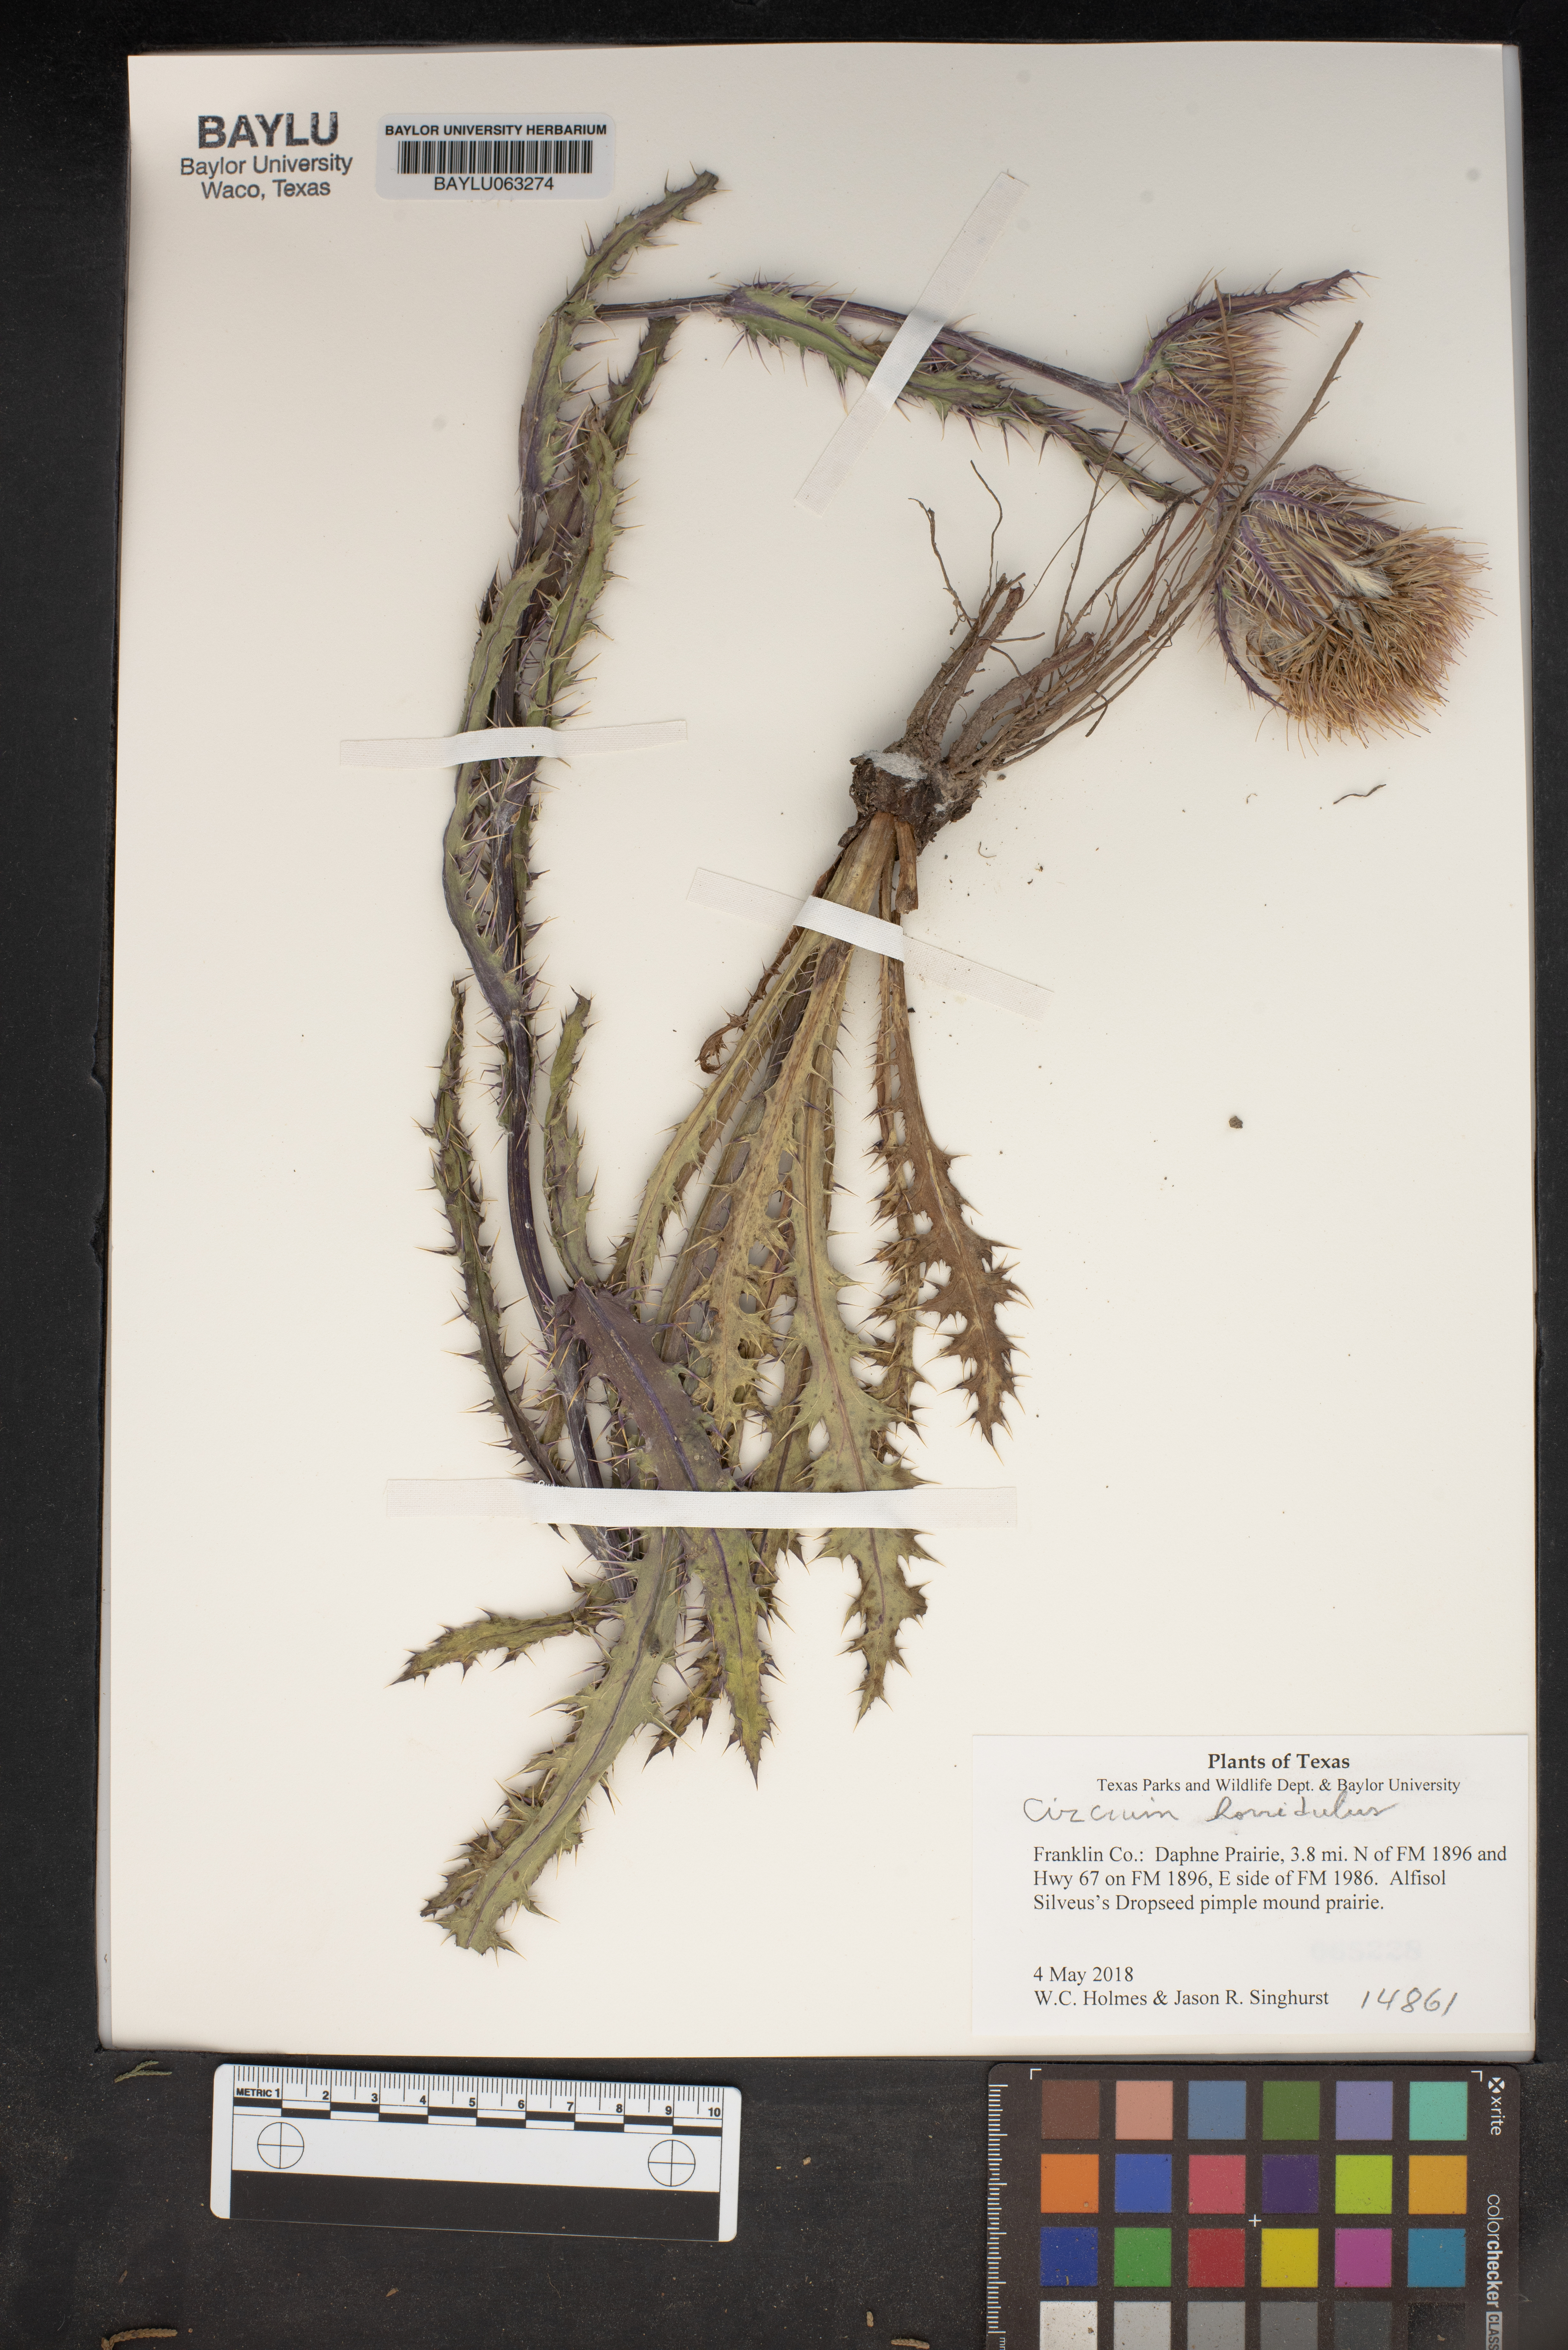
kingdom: Plantae
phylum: Tracheophyta
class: Magnoliopsida
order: Asterales
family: Asteraceae
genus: Cirsium
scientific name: Cirsium horridulum
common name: Bristly thistle
